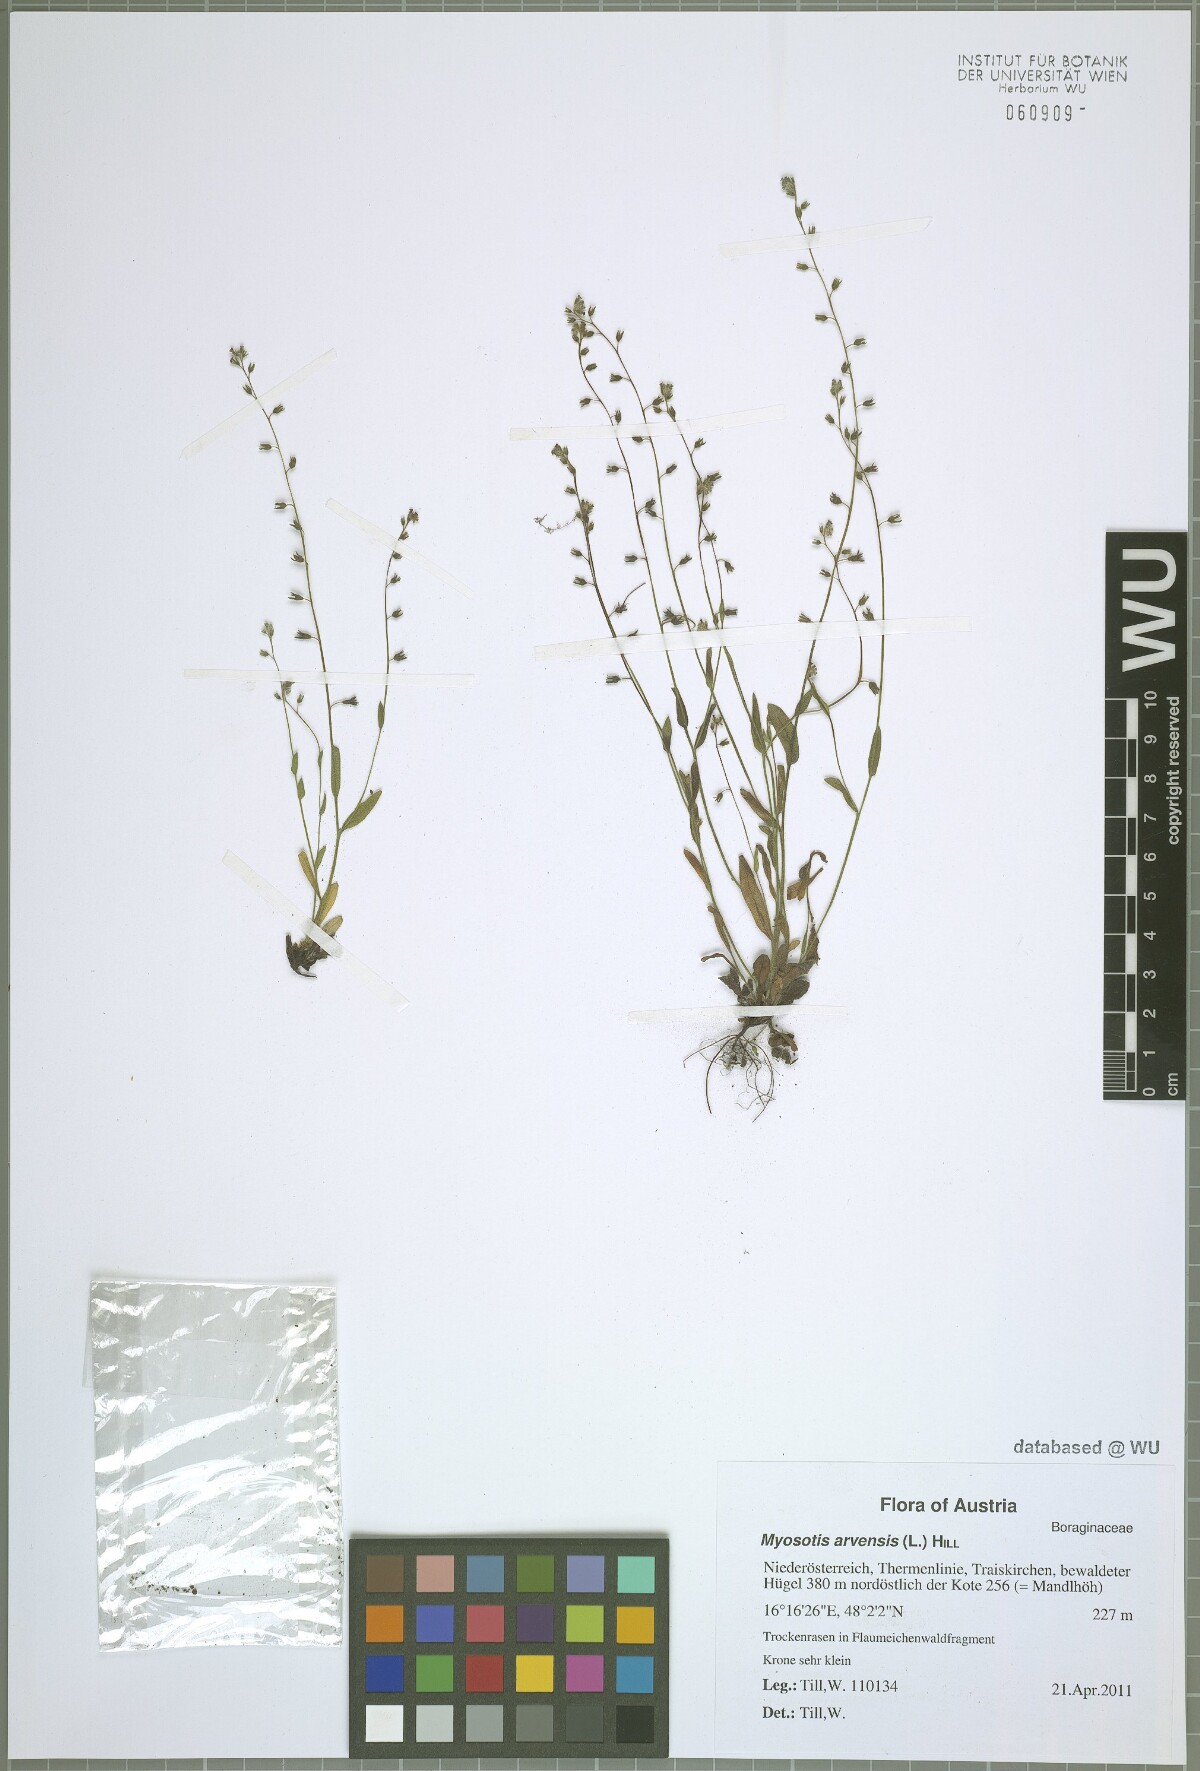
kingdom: Plantae
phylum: Tracheophyta
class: Magnoliopsida
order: Boraginales
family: Boraginaceae
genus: Myosotis
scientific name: Myosotis arvensis
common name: Field forget-me-not
